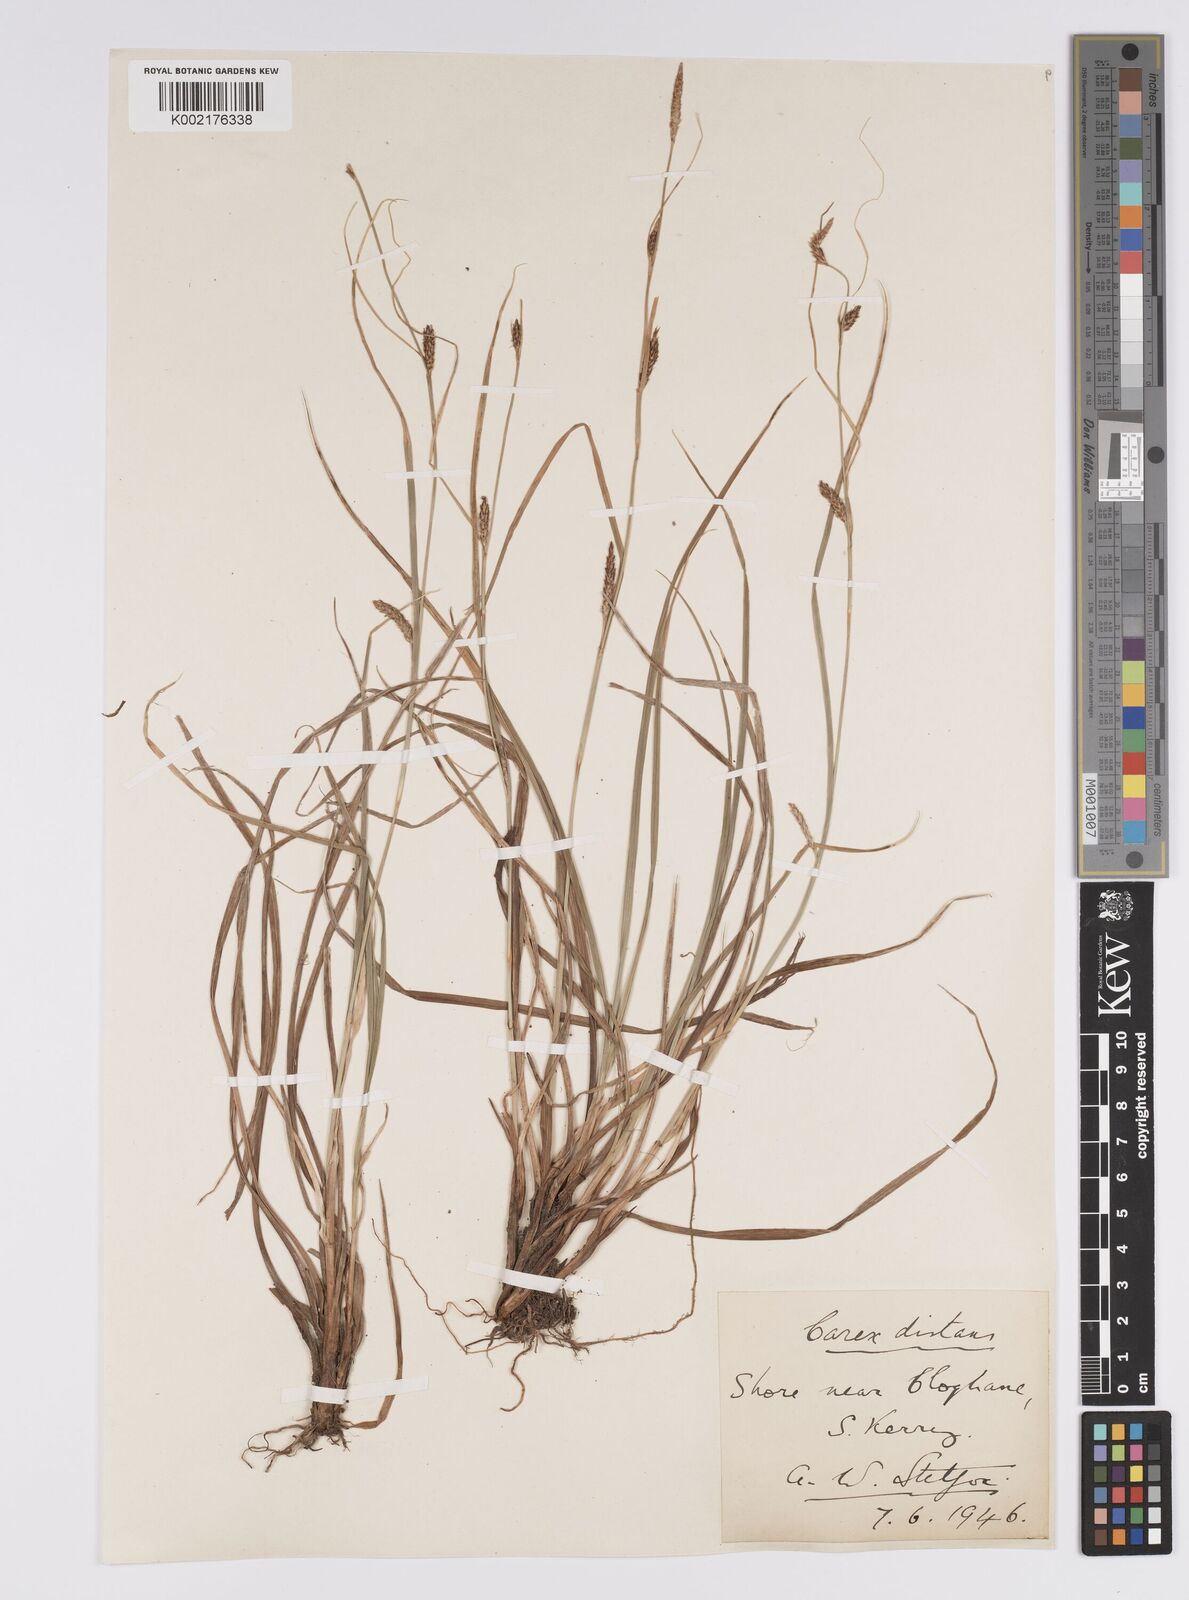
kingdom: Plantae
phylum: Tracheophyta
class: Liliopsida
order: Poales
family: Cyperaceae
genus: Carex
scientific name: Carex distans
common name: Distant sedge
